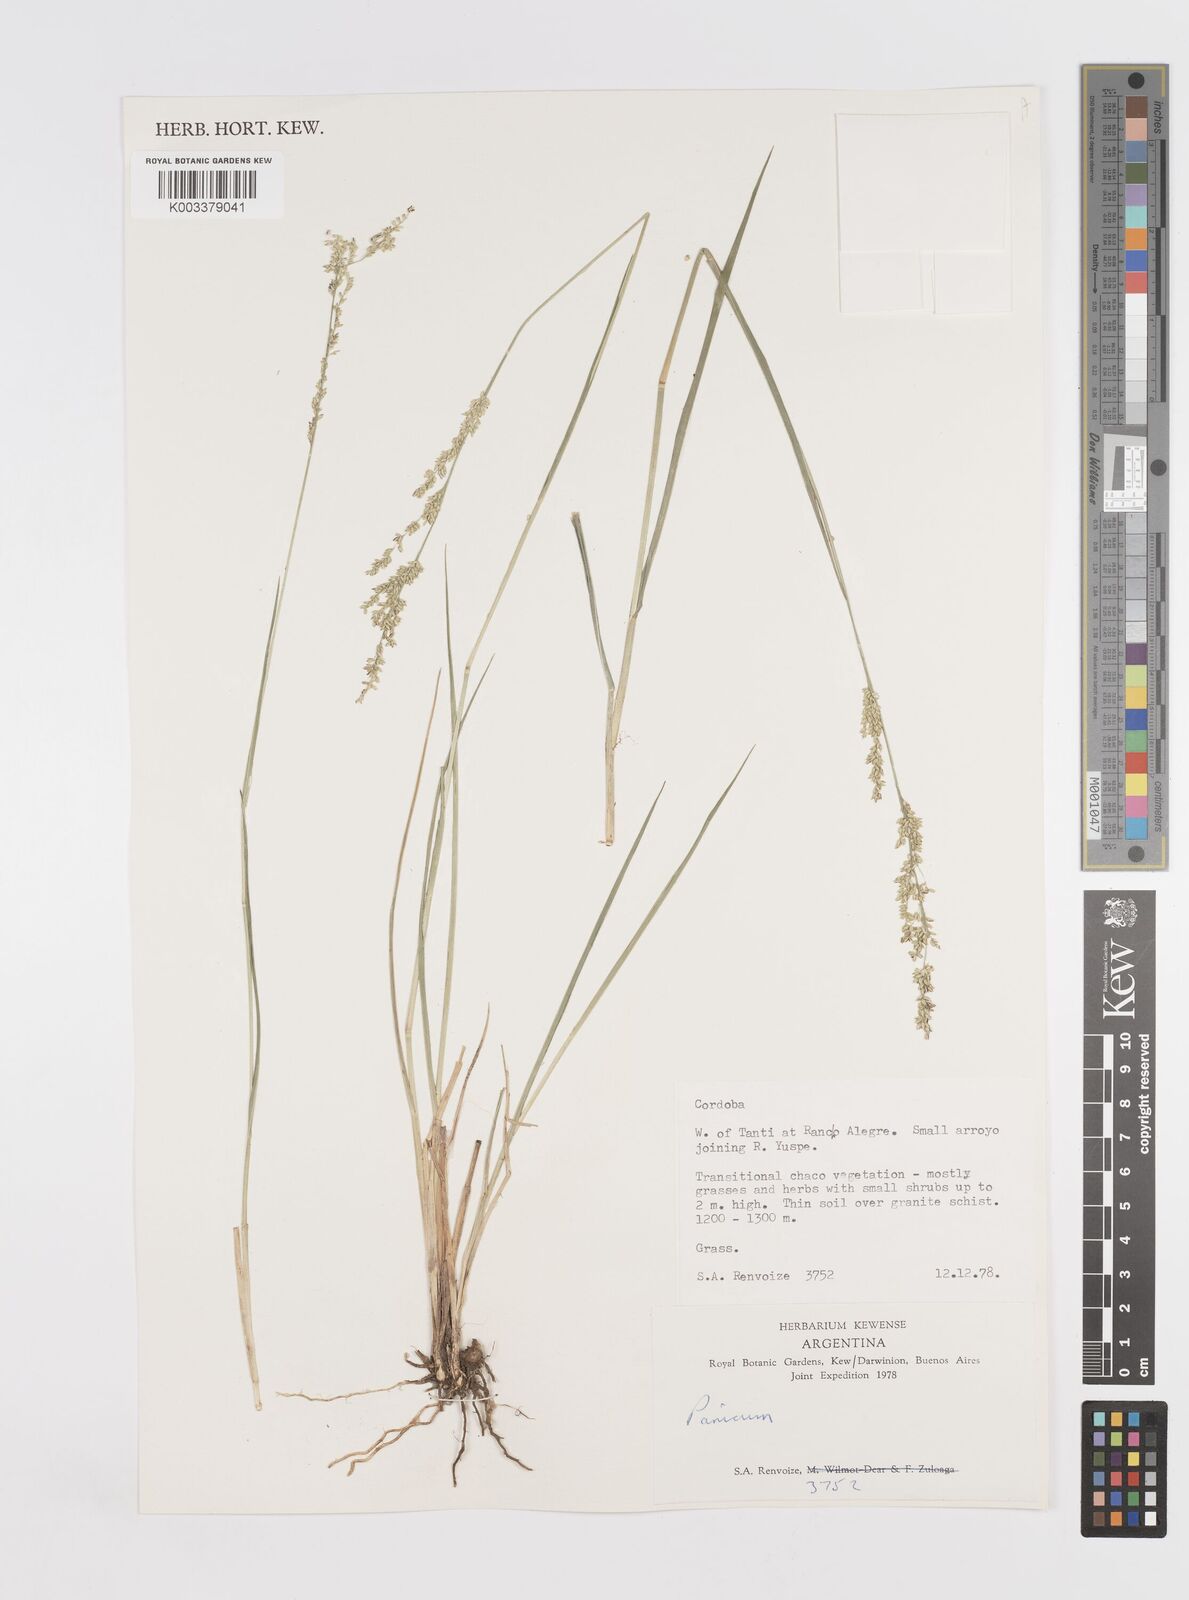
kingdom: Plantae
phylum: Tracheophyta
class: Liliopsida
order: Poales
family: Poaceae
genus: Steinchisma
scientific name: Steinchisma hians
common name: Gaping panic grass
